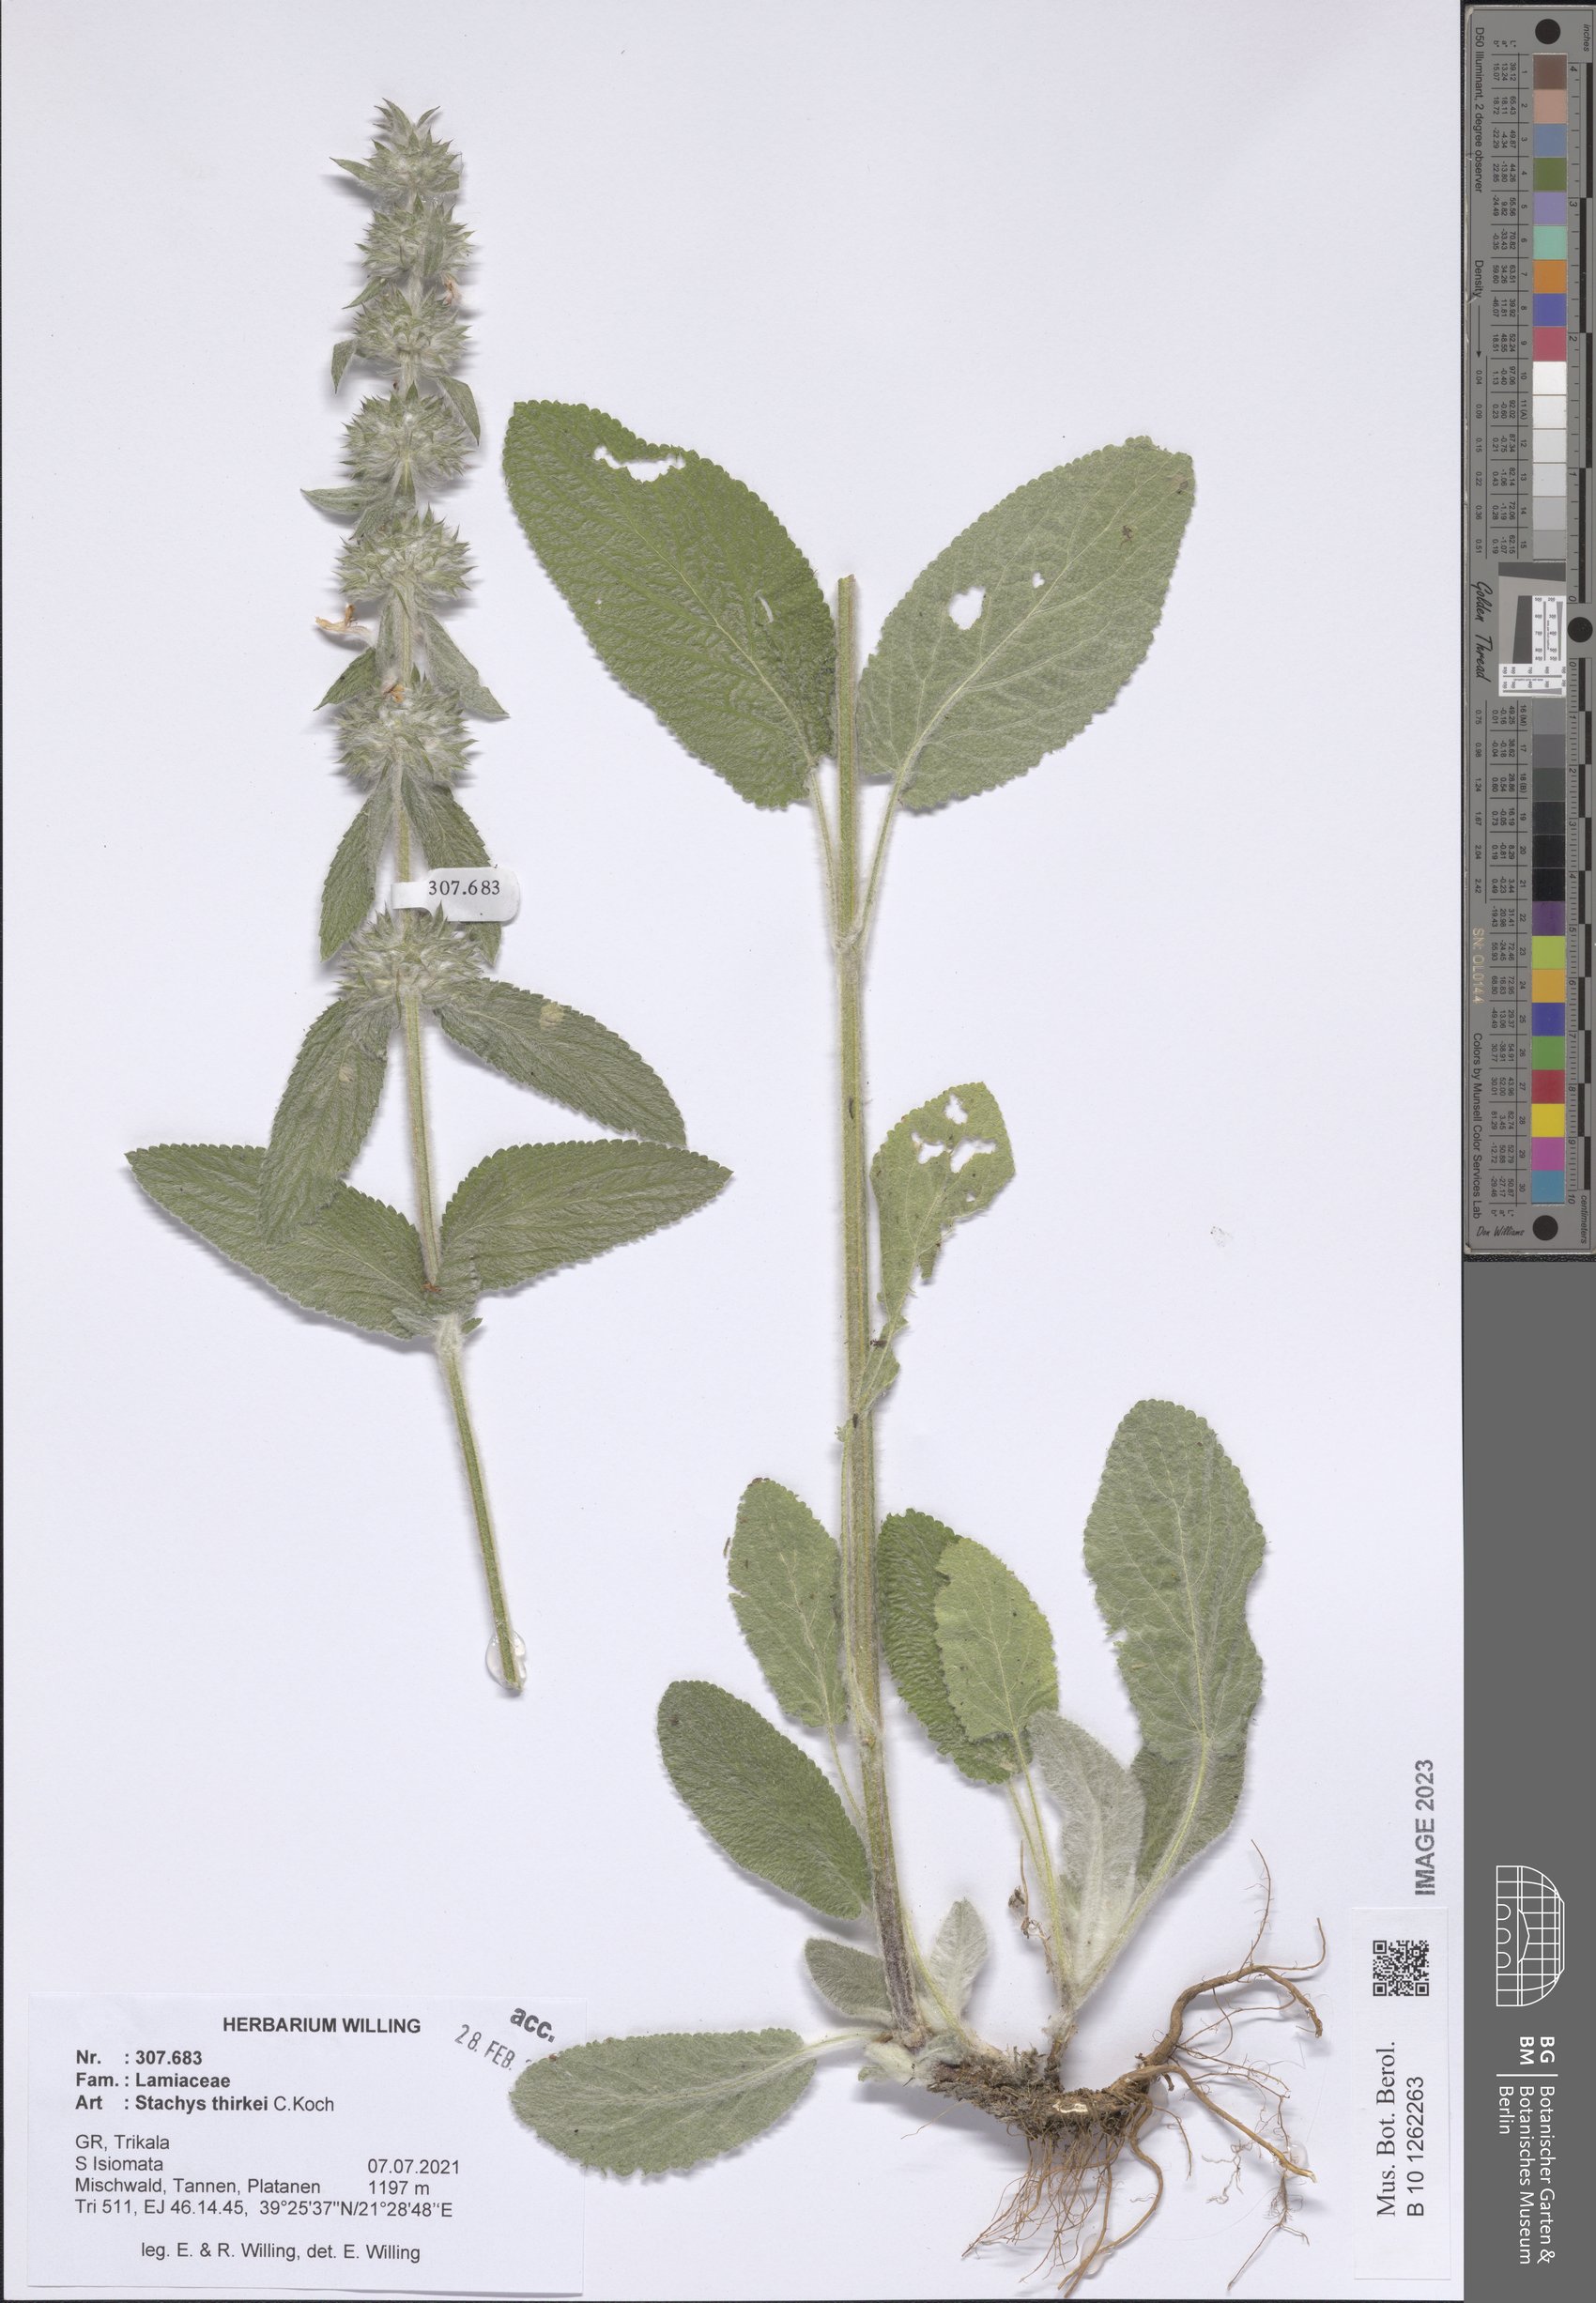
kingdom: Plantae
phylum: Tracheophyta
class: Magnoliopsida
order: Lamiales
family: Lamiaceae
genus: Stachys
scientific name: Stachys thirkei
